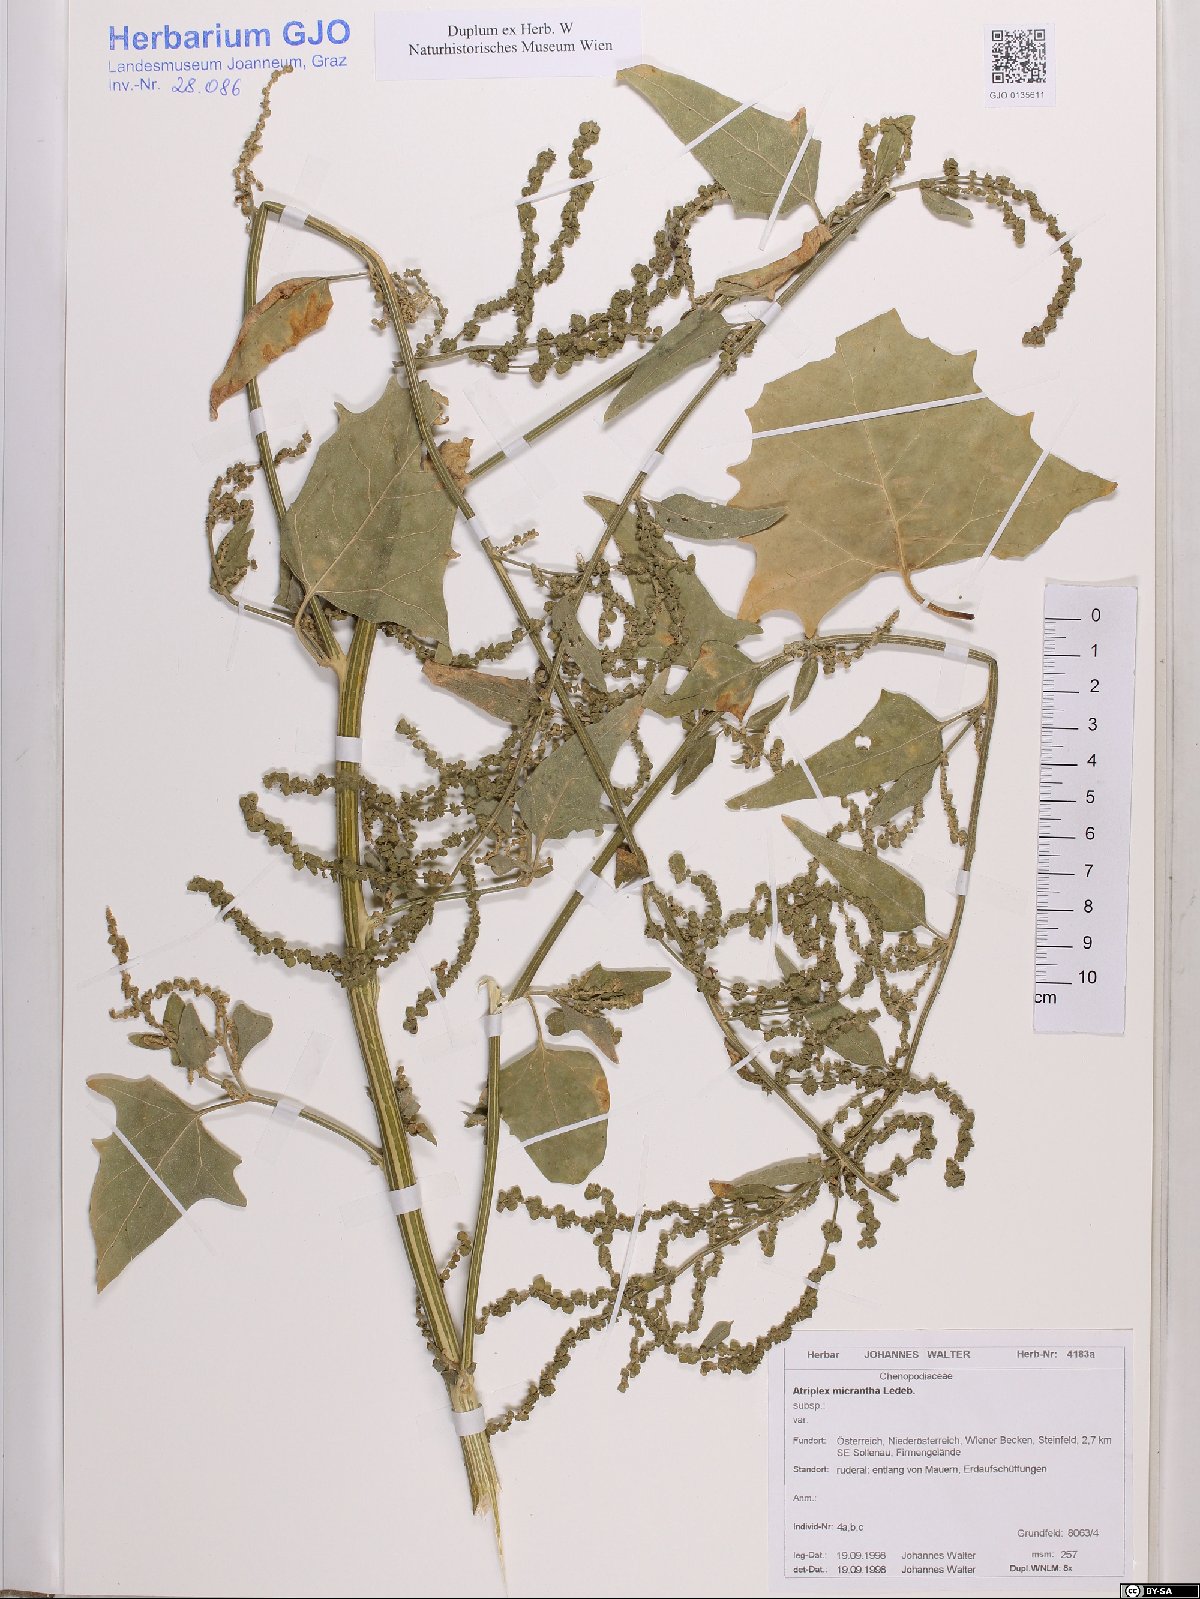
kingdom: Plantae
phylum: Tracheophyta
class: Magnoliopsida
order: Caryophyllales
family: Amaranthaceae
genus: Atriplex
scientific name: Atriplex micrantha
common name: Twoscale saltbush
